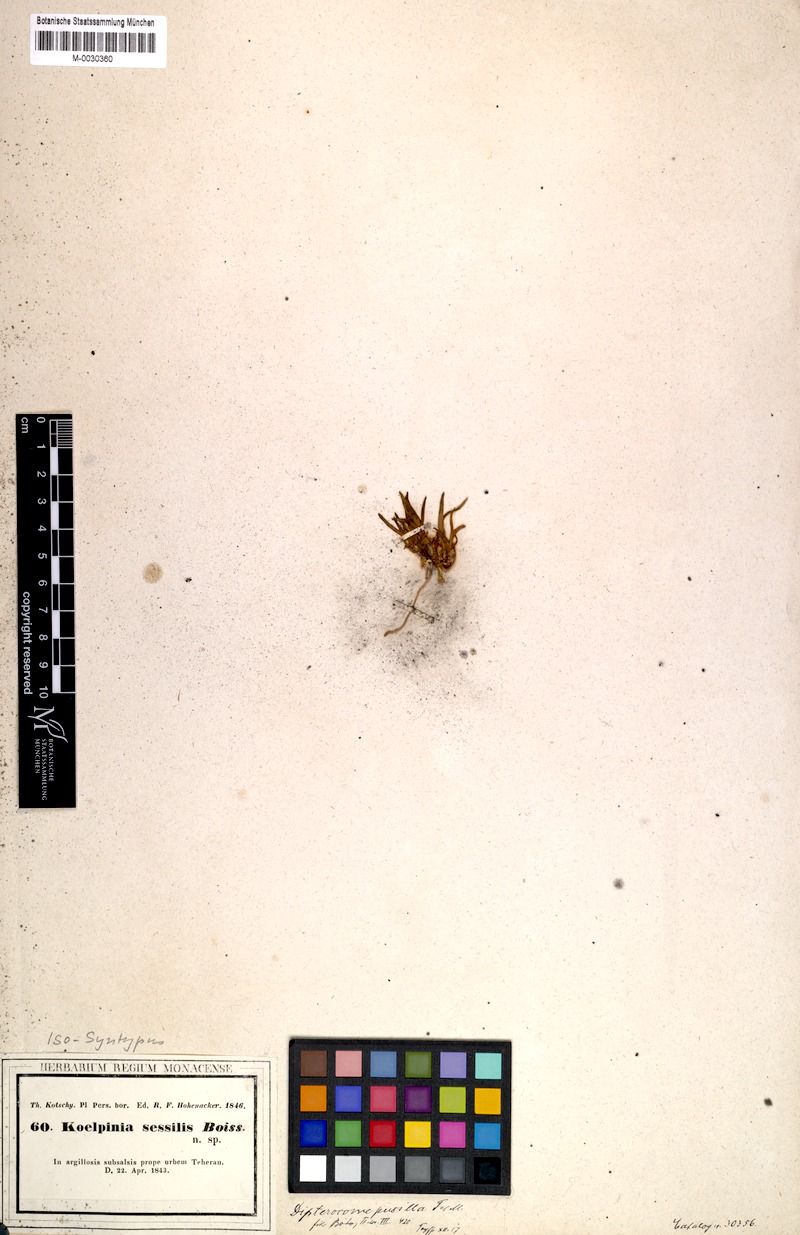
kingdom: Plantae
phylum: Tracheophyta
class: Magnoliopsida
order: Asterales
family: Asteraceae
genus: Dipterocome
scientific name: Dipterocome pusilla
